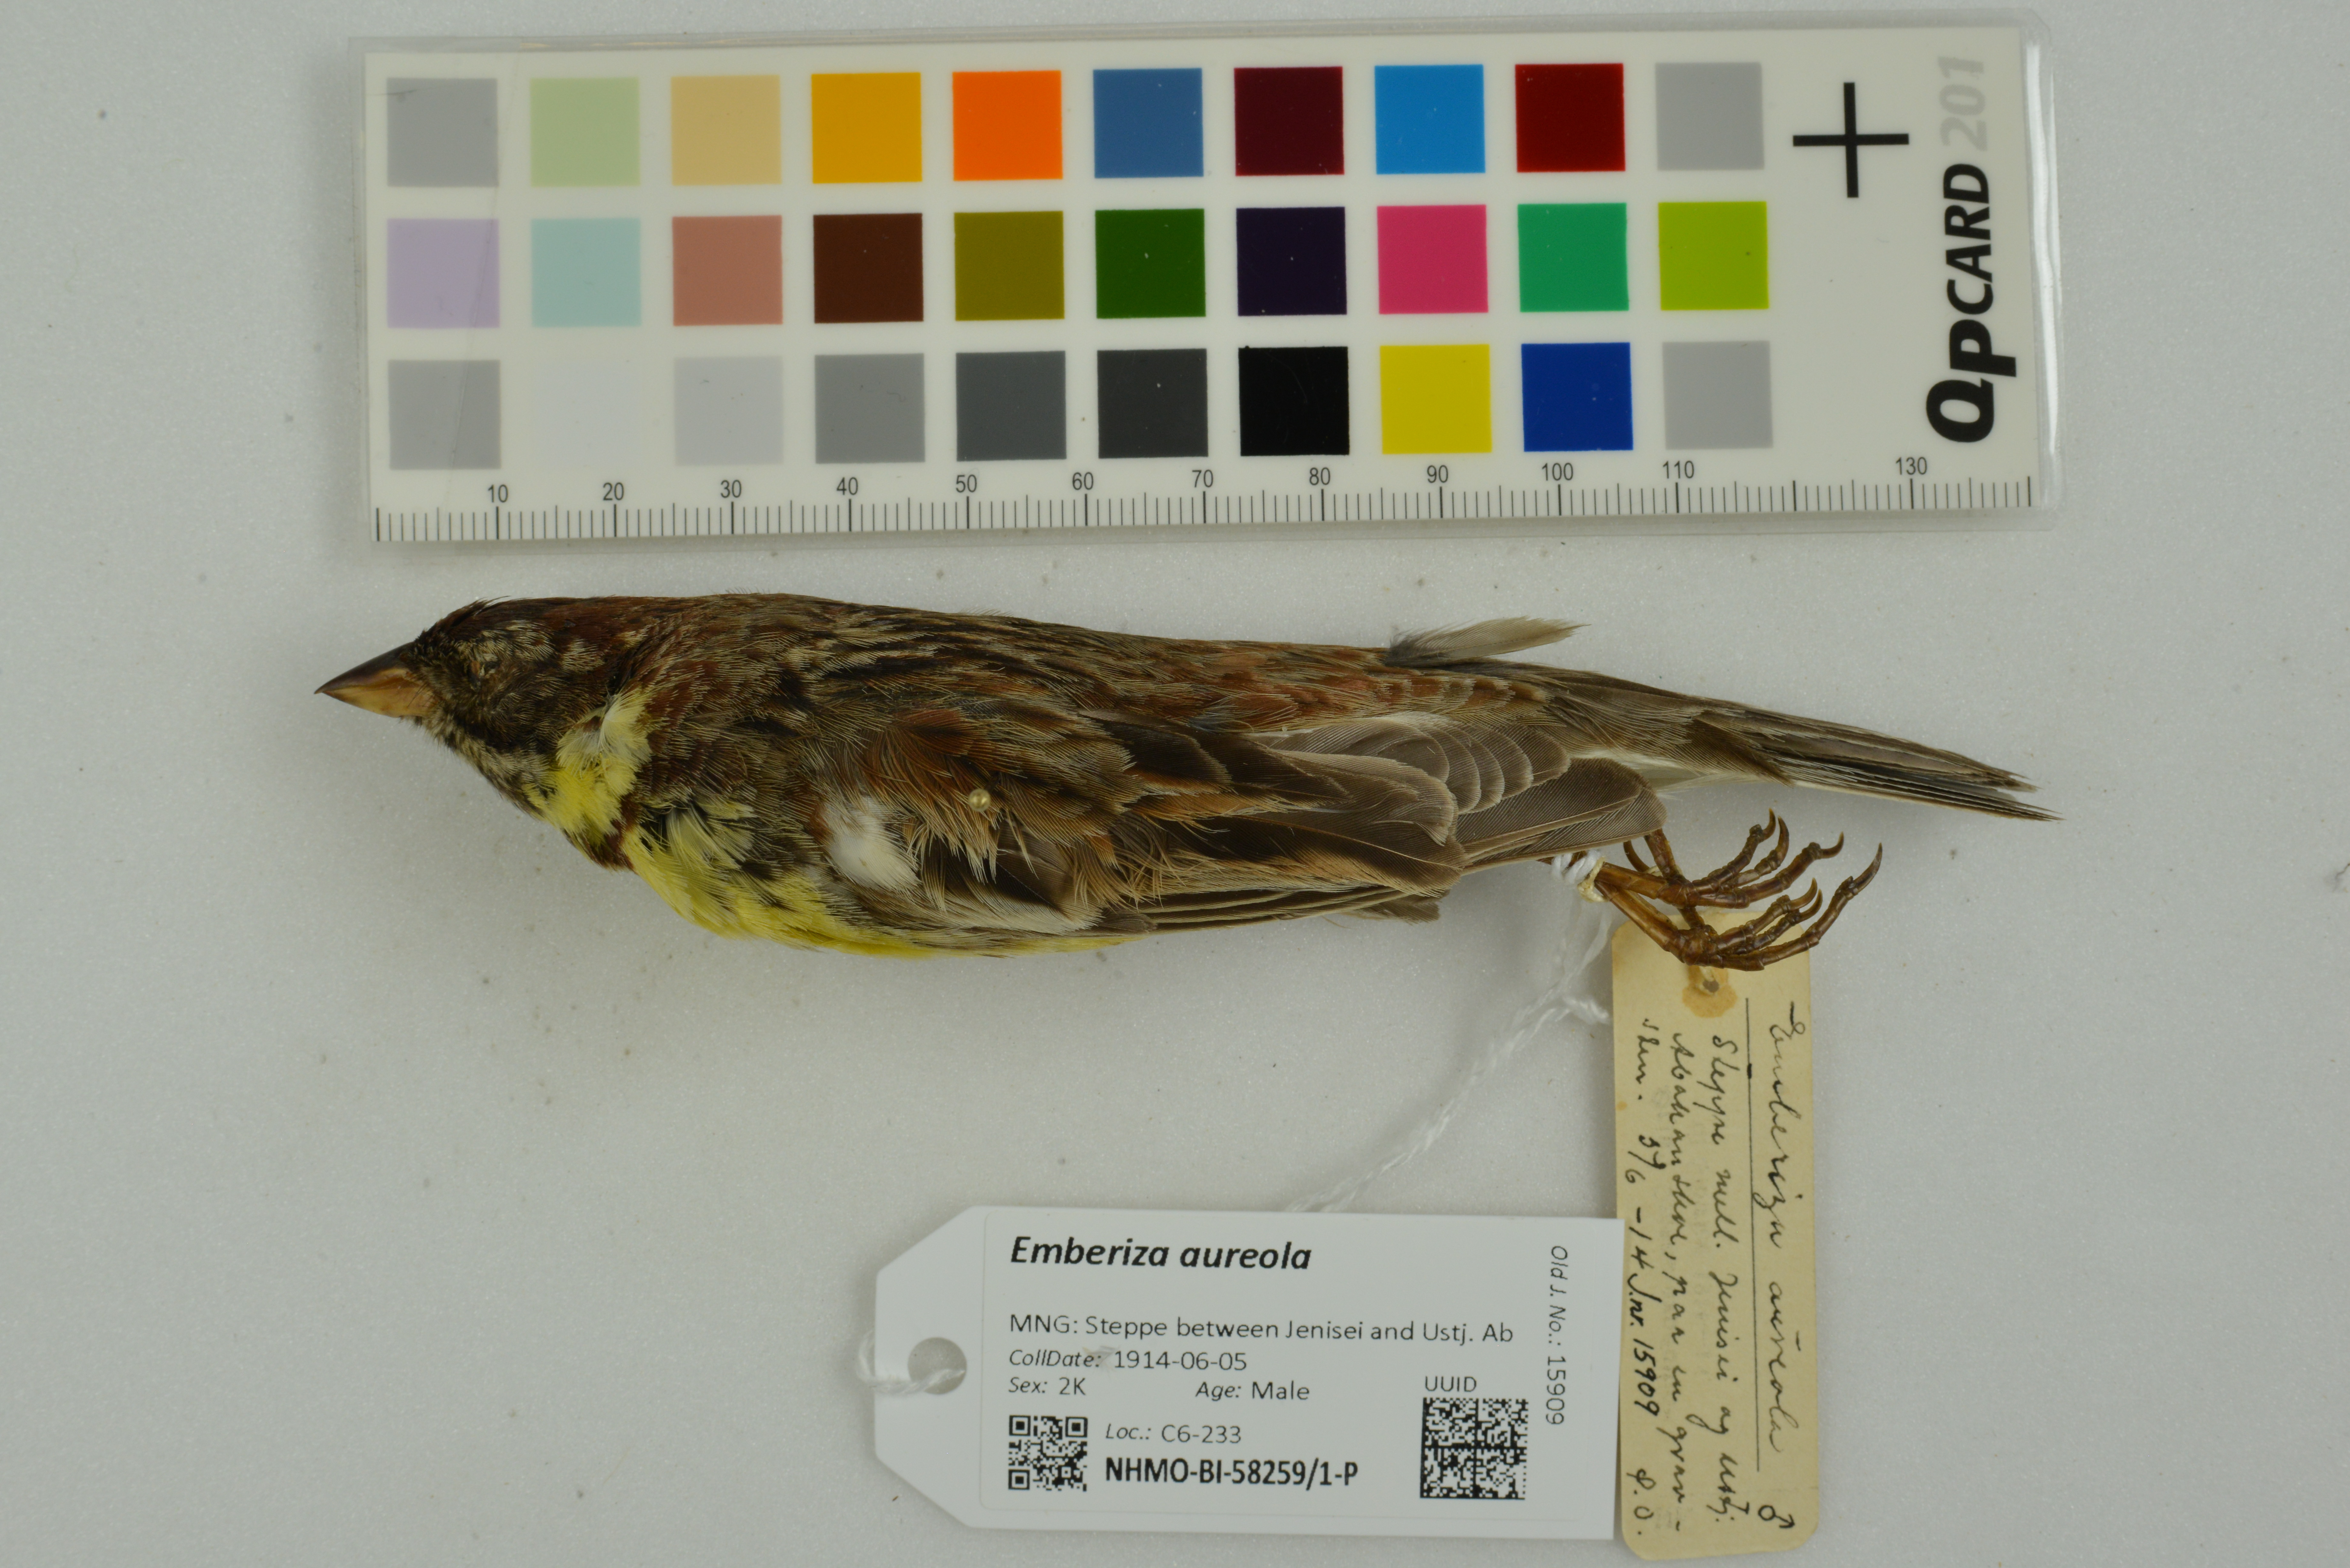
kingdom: Animalia
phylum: Chordata
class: Aves
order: Passeriformes
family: Emberizidae
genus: Emberiza
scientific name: Emberiza aureola
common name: Yellow-breasted bunting
